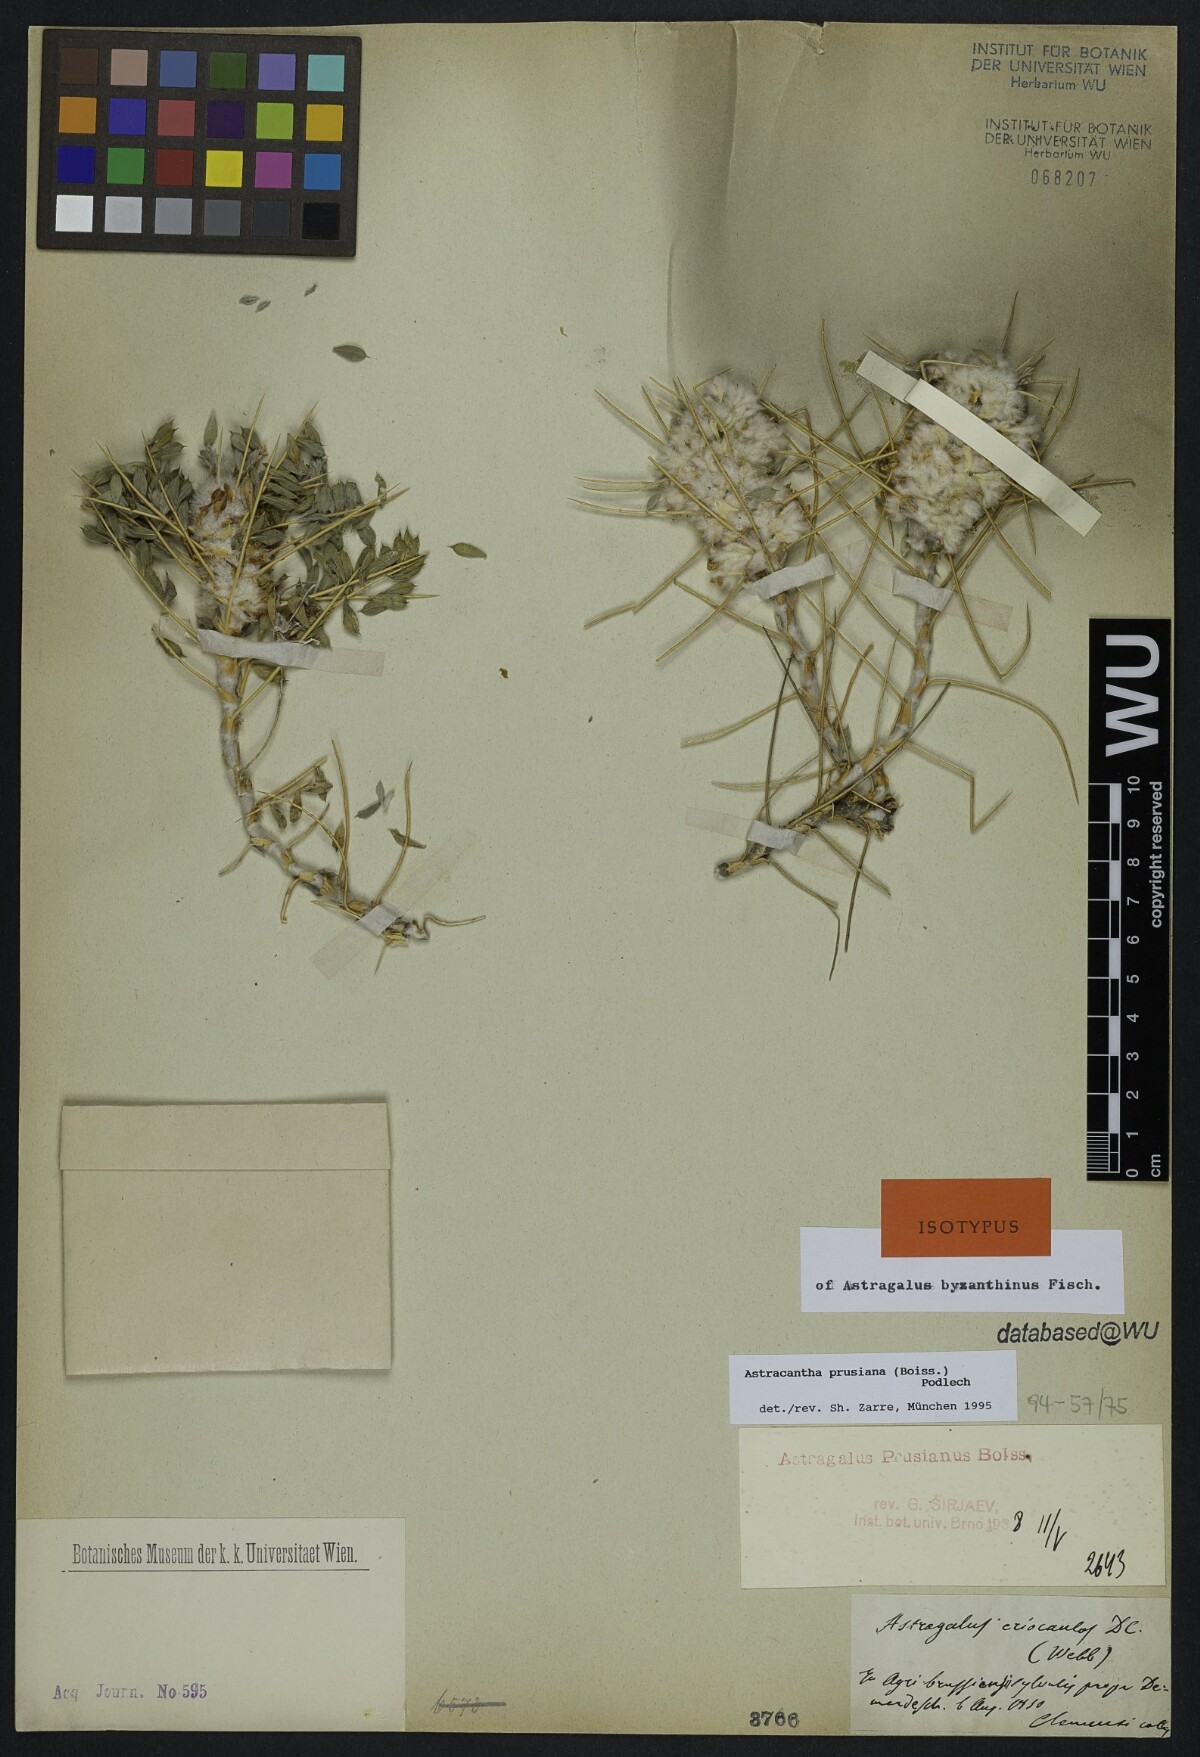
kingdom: Plantae
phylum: Tracheophyta
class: Magnoliopsida
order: Fabales
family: Fabaceae
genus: Astragalus
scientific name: Astragalus prusianus
